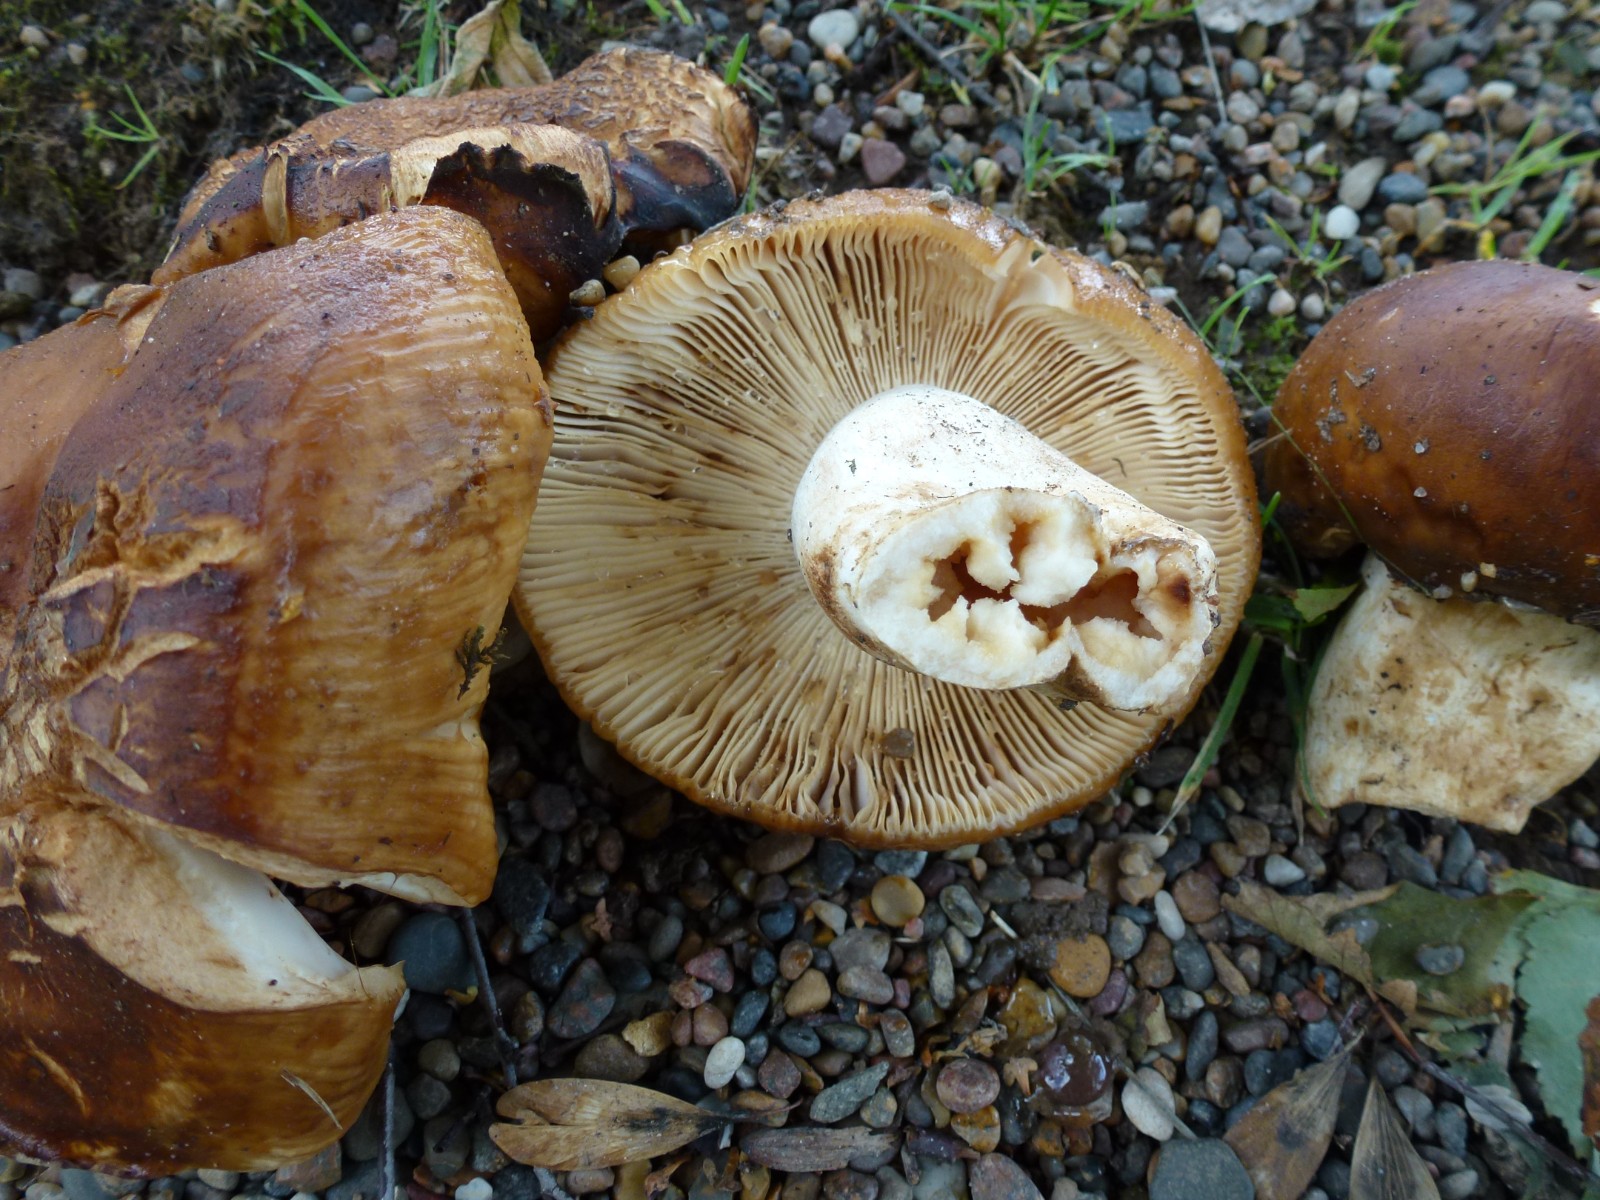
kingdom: Fungi
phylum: Basidiomycota
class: Agaricomycetes
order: Russulales
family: Russulaceae
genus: Russula
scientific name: Russula foetens
